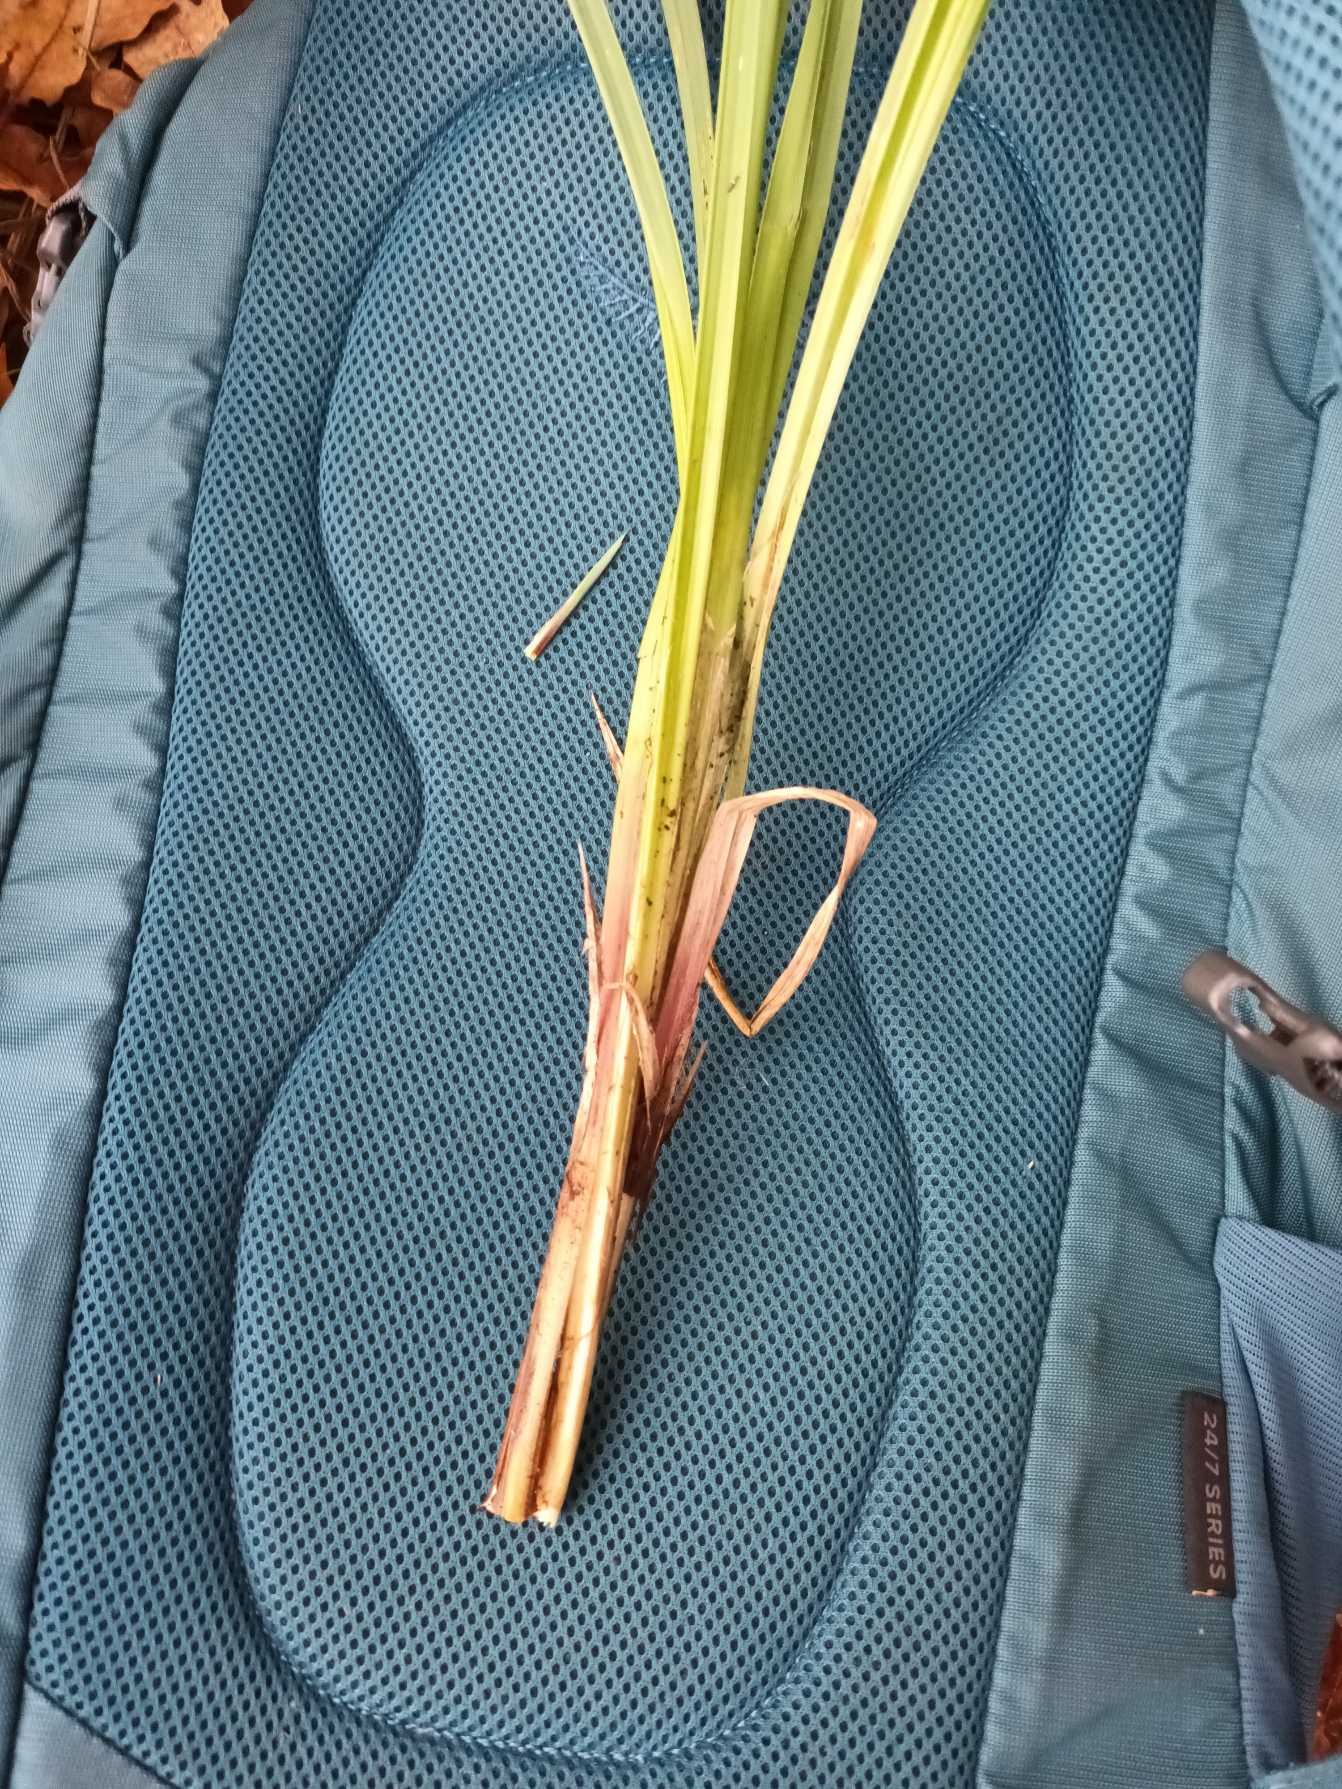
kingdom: Plantae
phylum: Tracheophyta
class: Liliopsida
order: Poales
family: Cyperaceae
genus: Carex
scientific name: Carex acutiformis
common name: Kær-star
